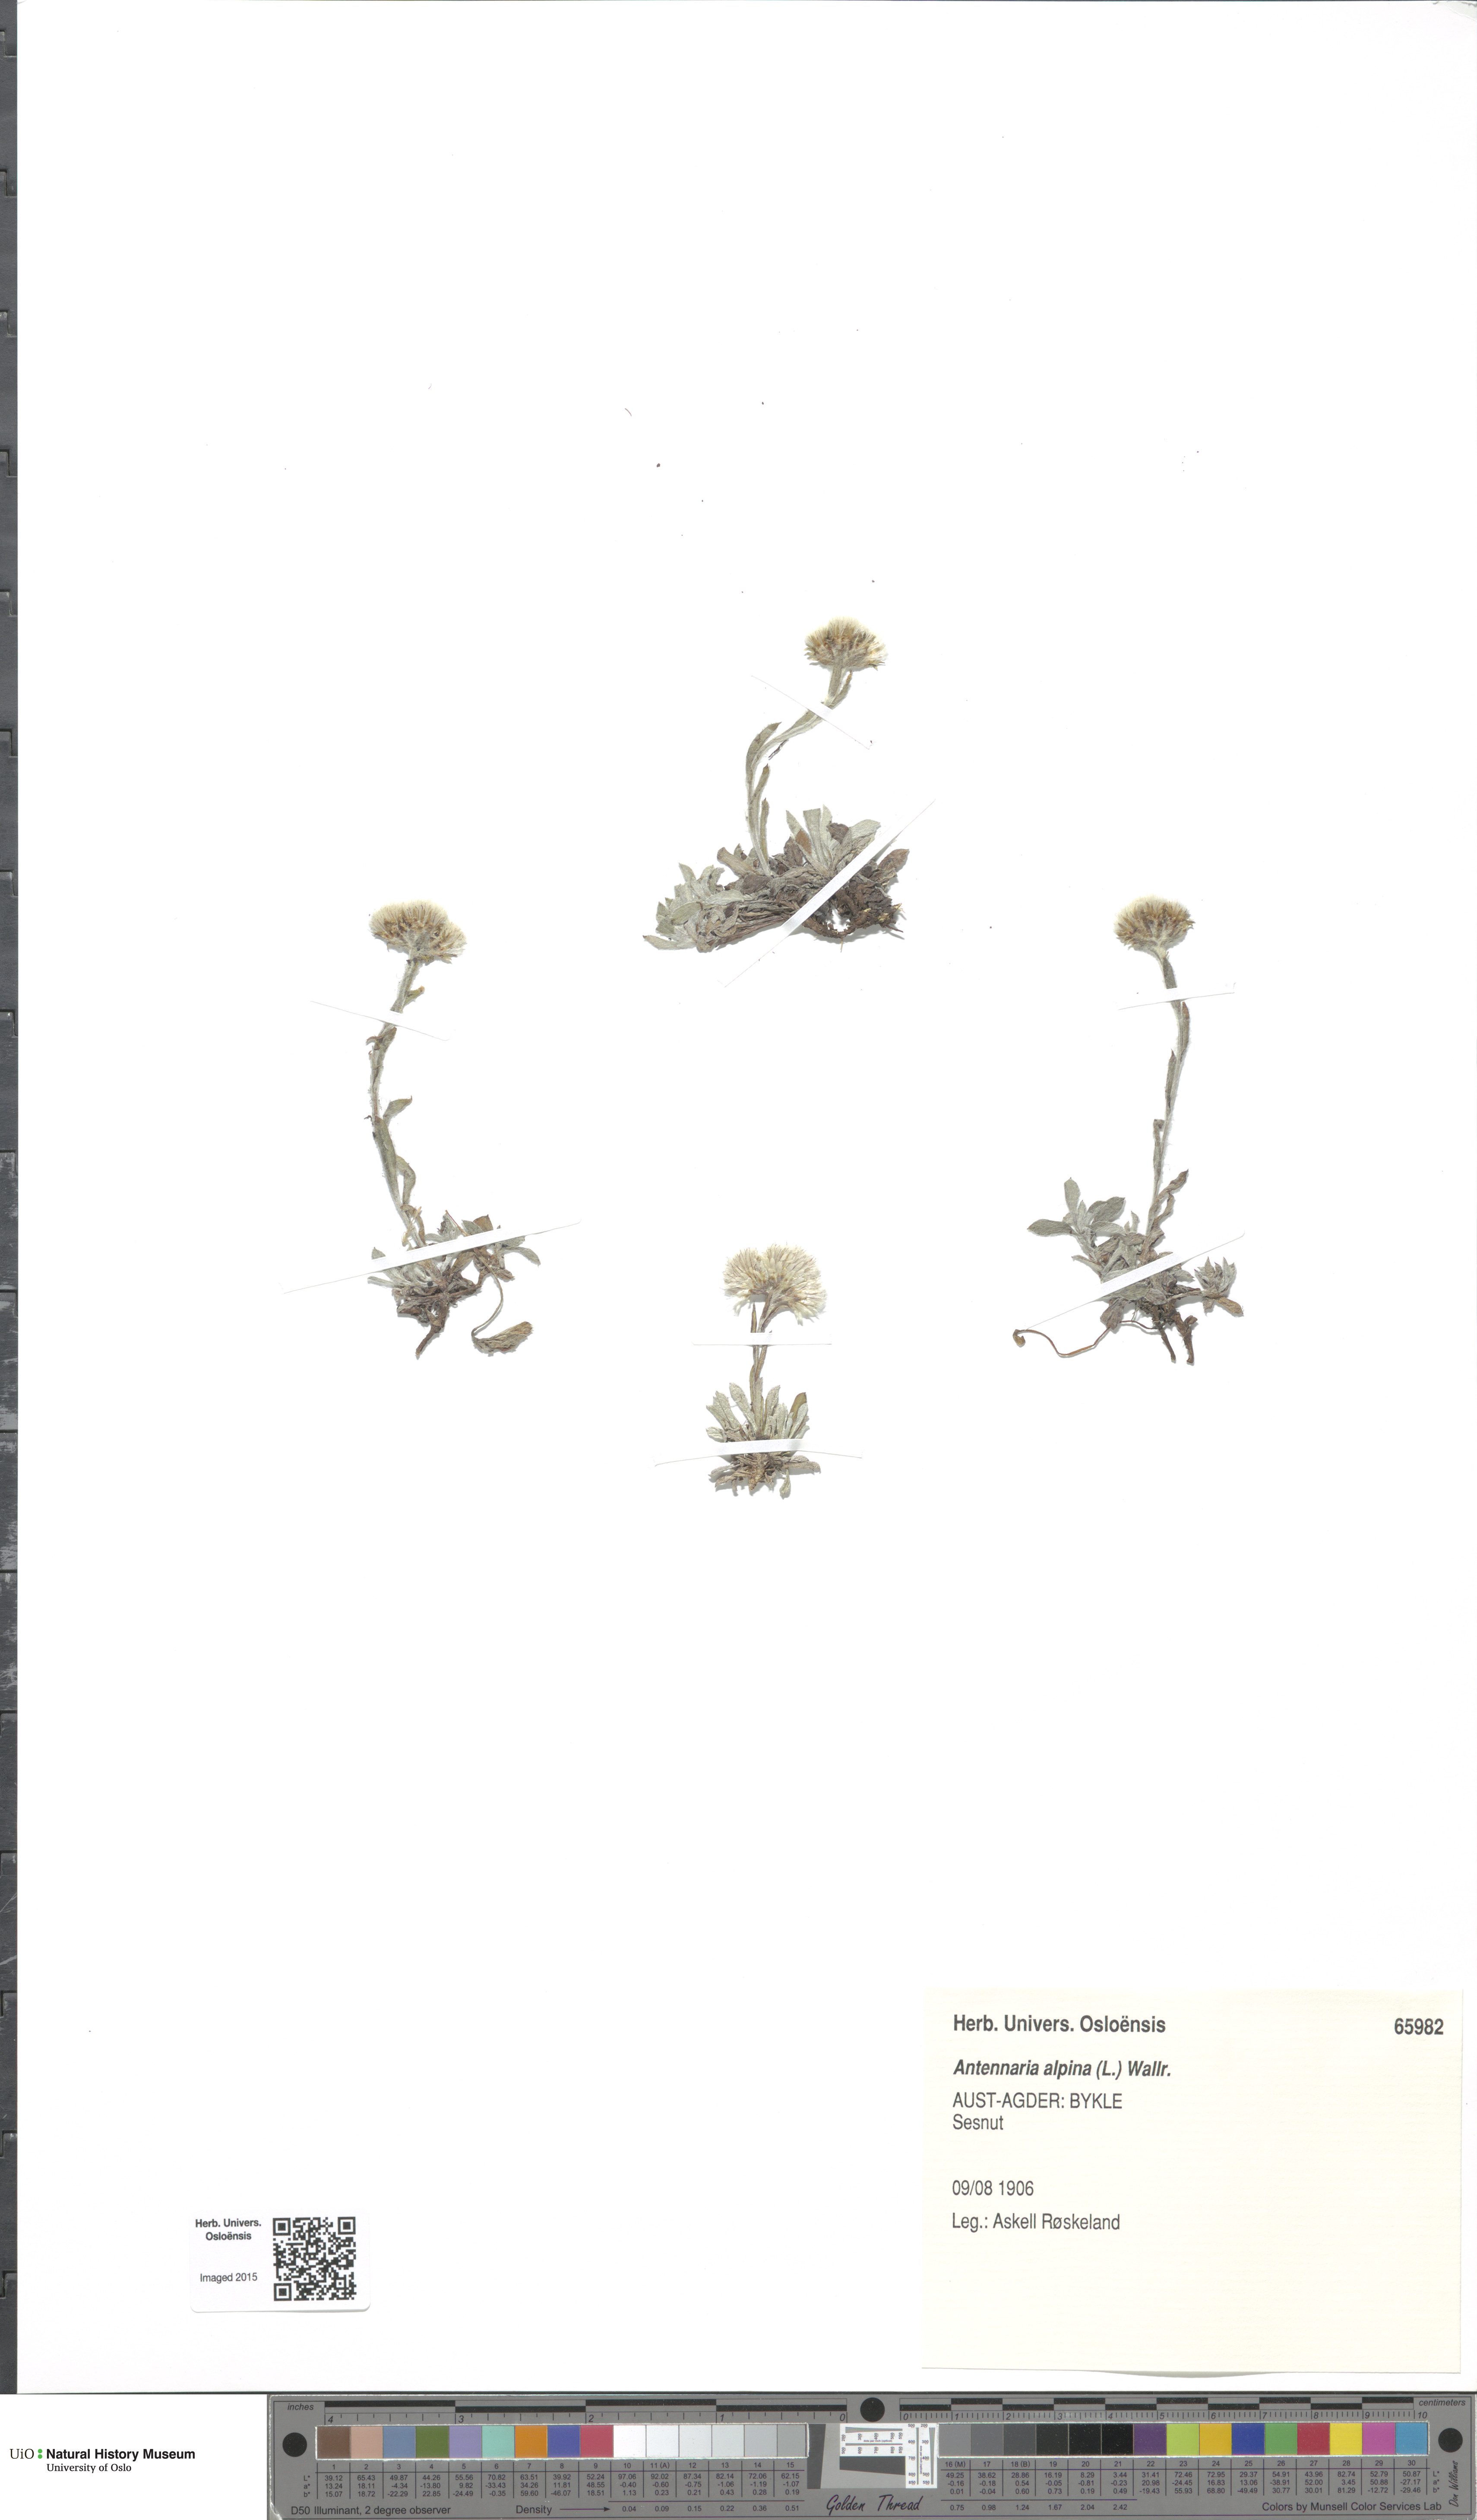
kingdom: Plantae
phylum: Tracheophyta
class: Magnoliopsida
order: Asterales
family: Asteraceae
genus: Antennaria
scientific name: Antennaria alpina
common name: Alpine pussytoes
